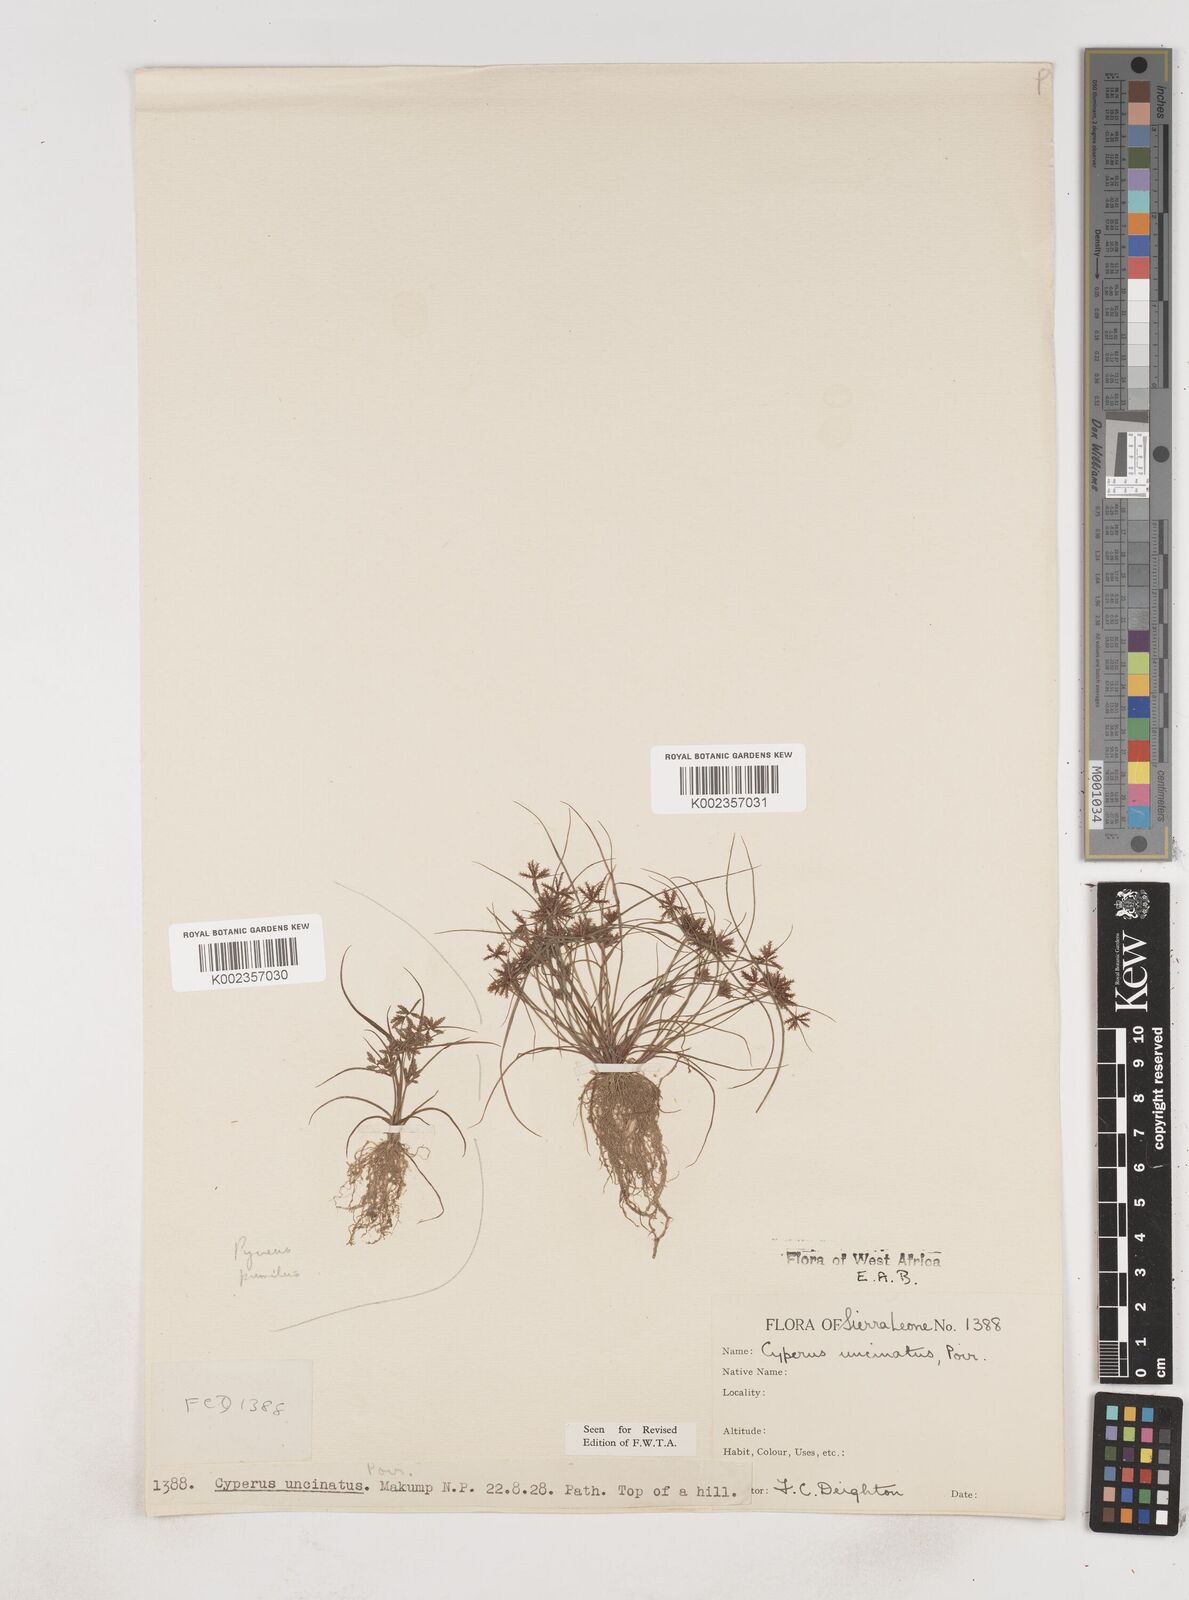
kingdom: Plantae
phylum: Tracheophyta
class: Liliopsida
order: Poales
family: Cyperaceae
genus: Cyperus
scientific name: Cyperus
